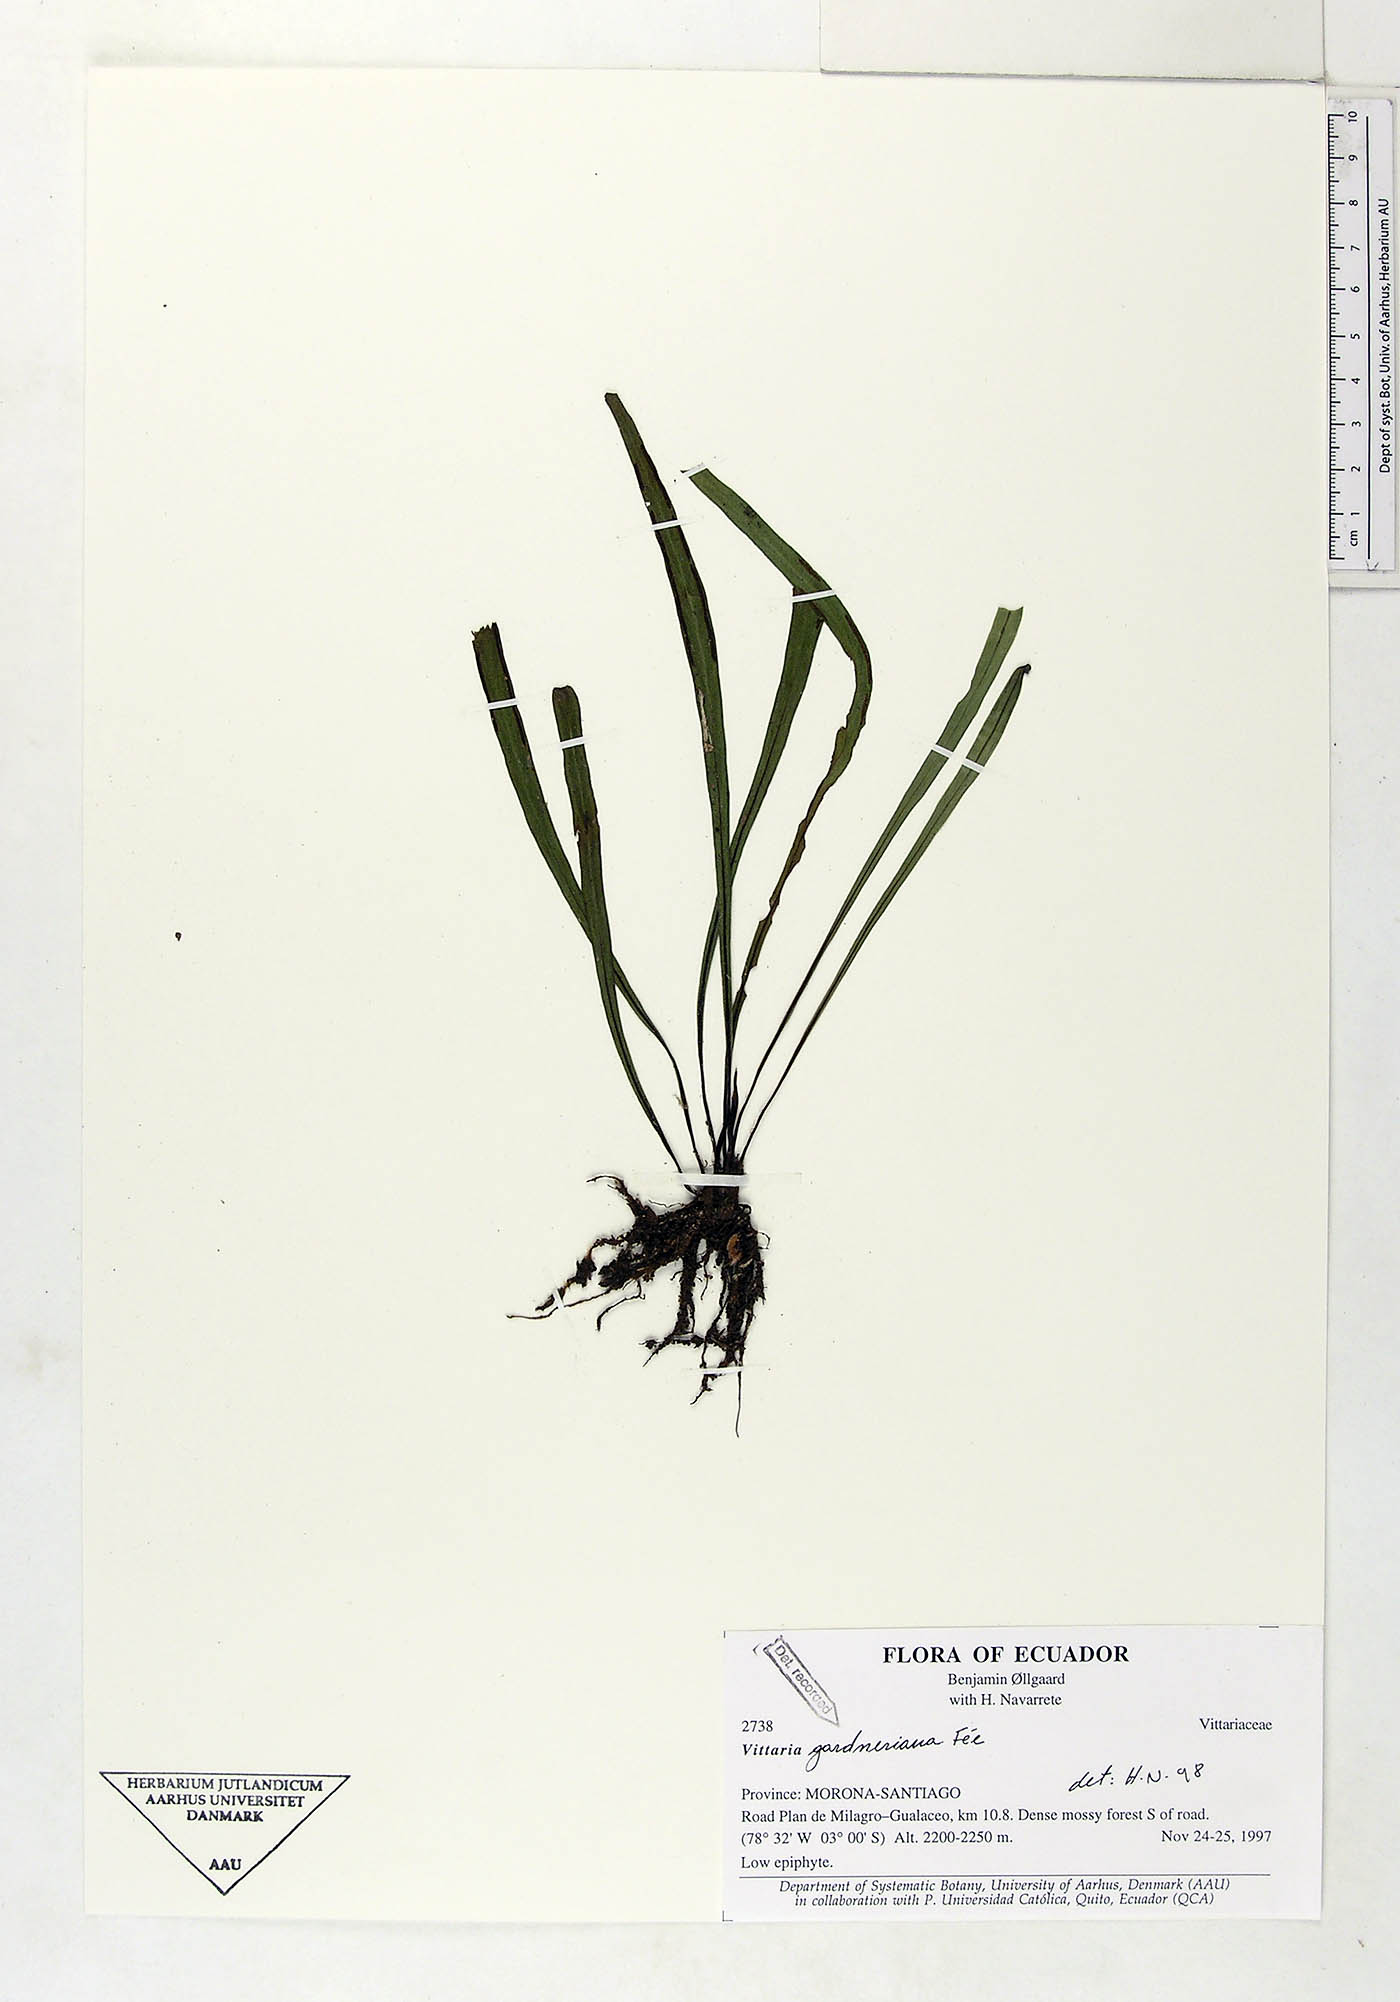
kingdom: Plantae
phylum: Tracheophyta
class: Polypodiopsida
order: Polypodiales
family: Pteridaceae
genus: Radiovittaria
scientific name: Radiovittaria gardneriana
